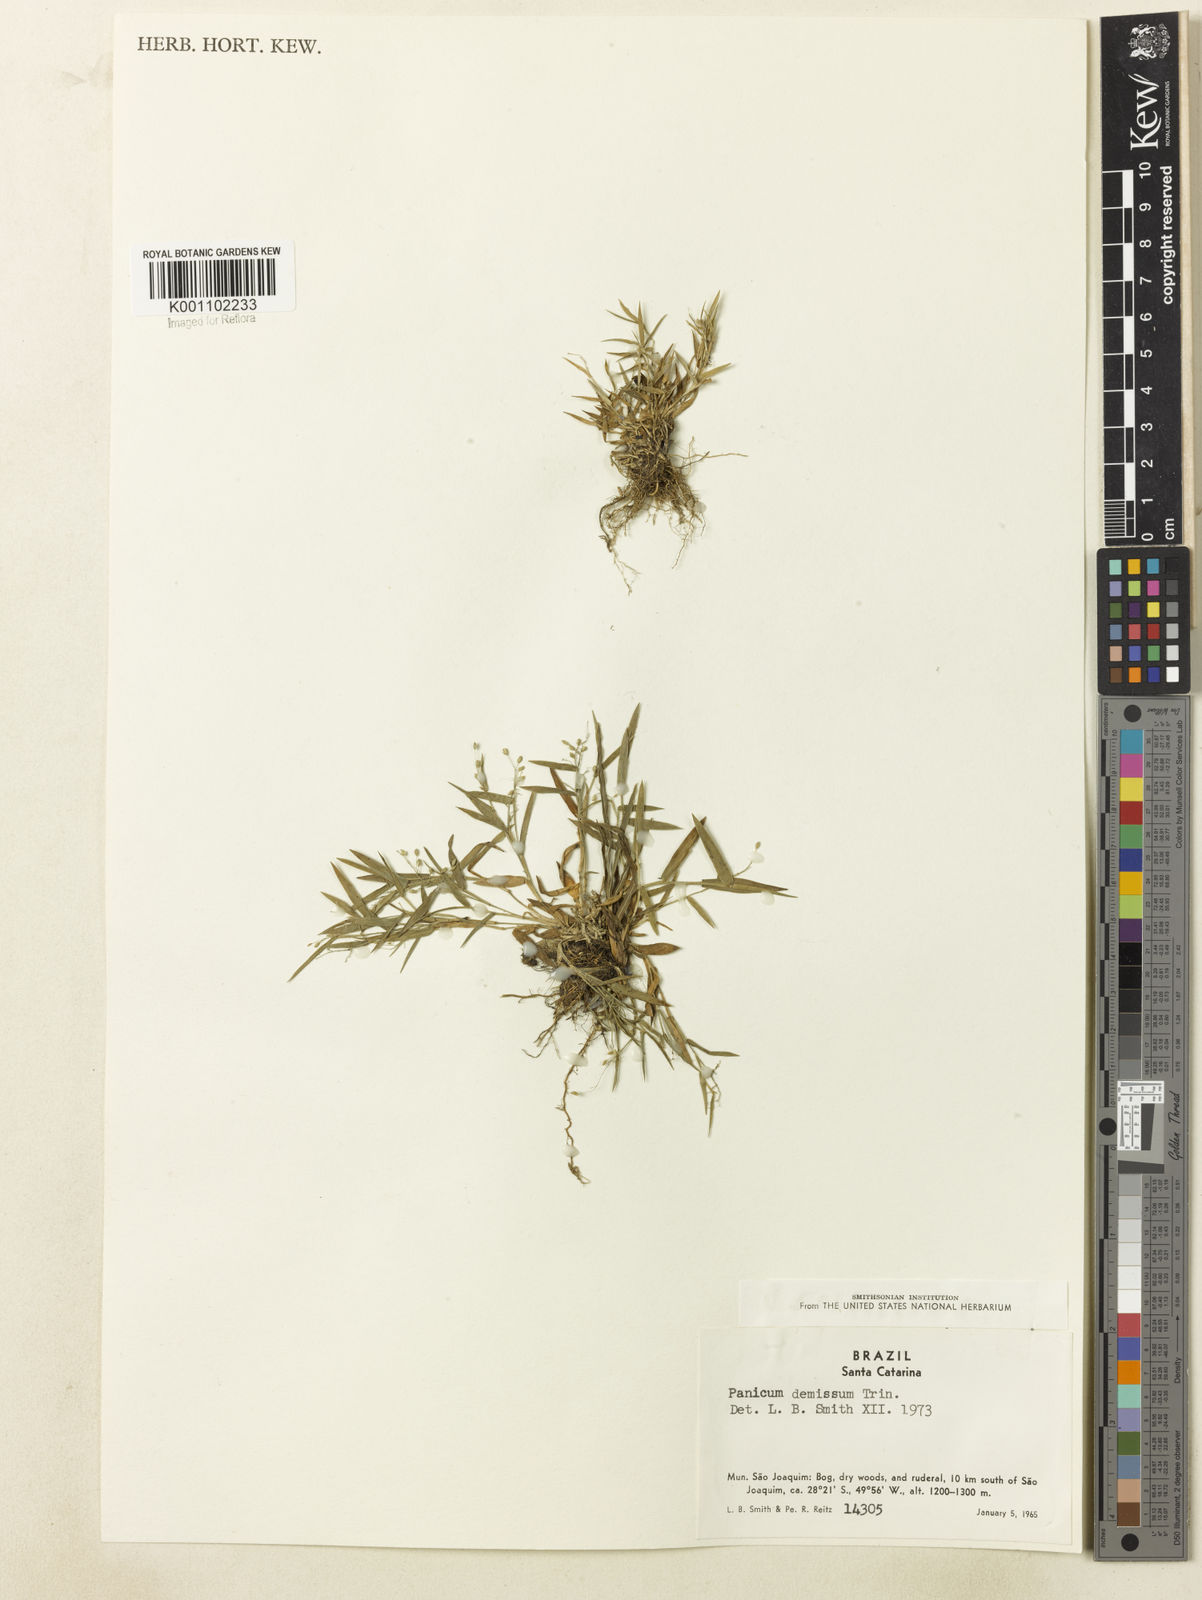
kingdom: Plantae
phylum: Tracheophyta
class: Liliopsida
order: Poales
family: Poaceae
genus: Dichanthelium
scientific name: Dichanthelium sabulorum
